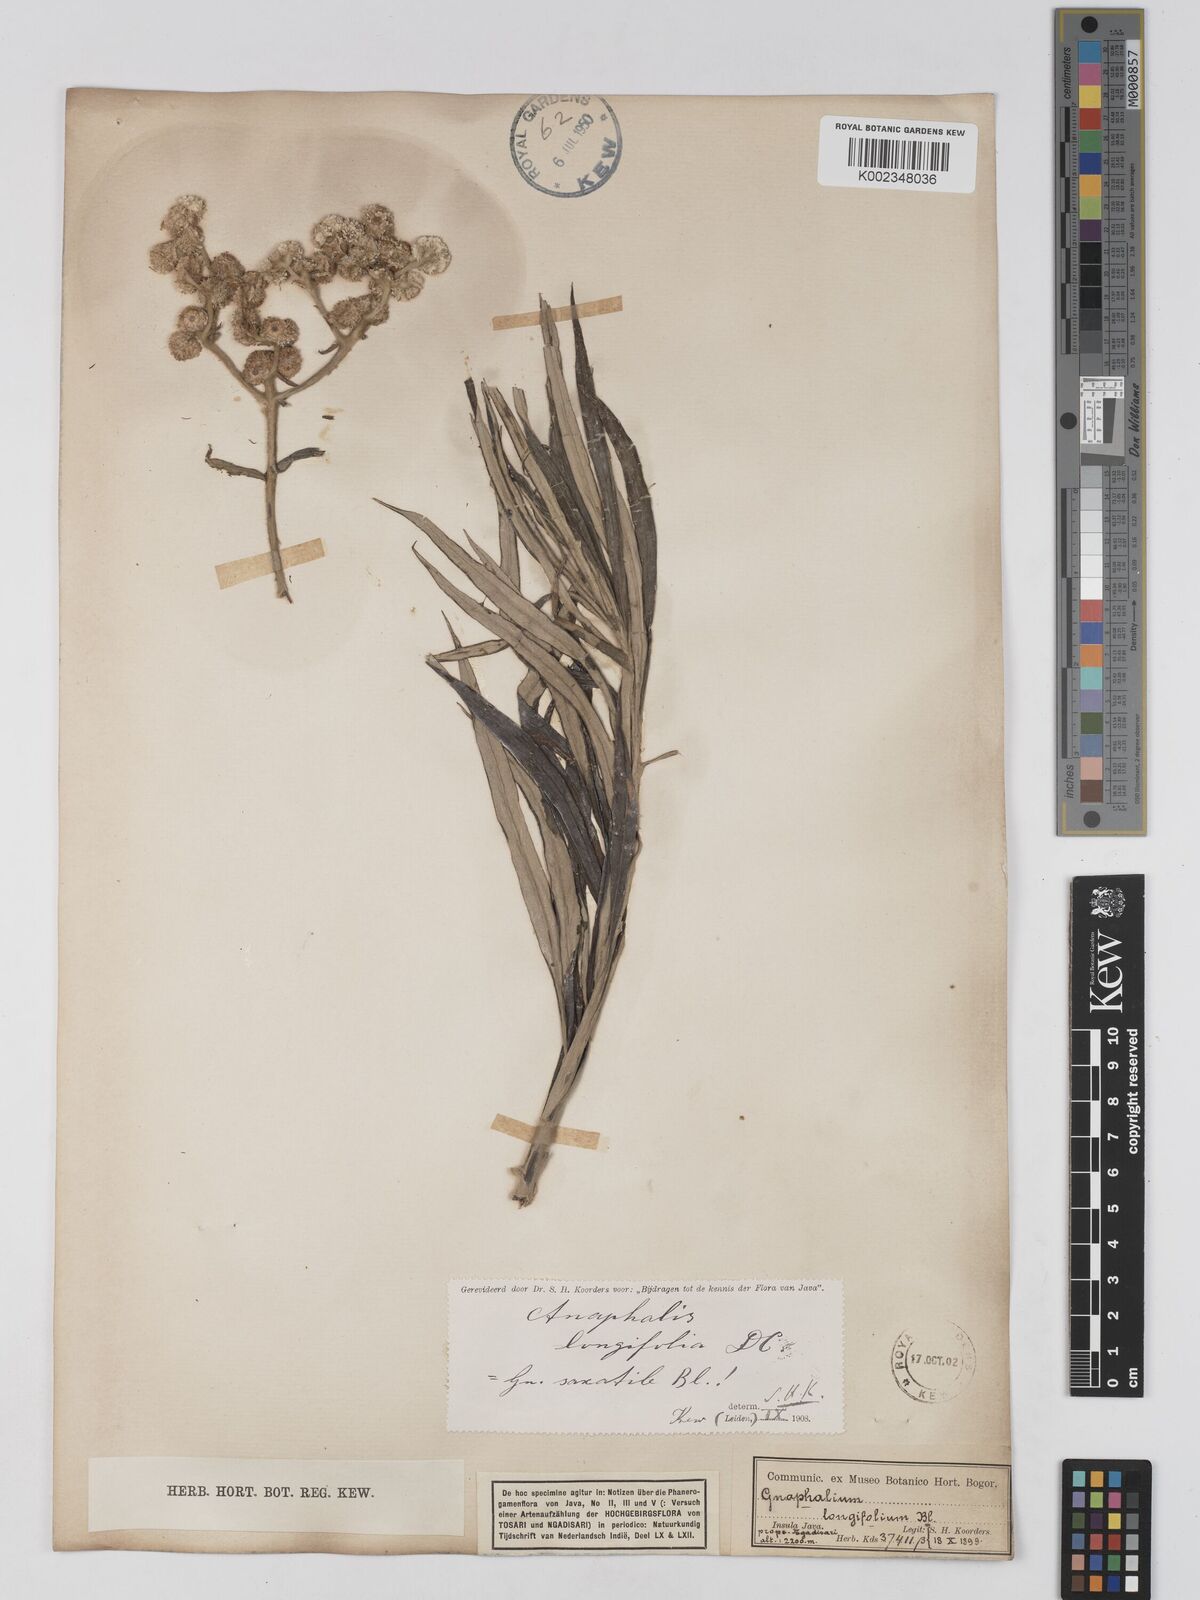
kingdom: Plantae
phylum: Tracheophyta
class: Magnoliopsida
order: Asterales
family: Asteraceae
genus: Anaphalis
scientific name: Anaphalis longifolia
